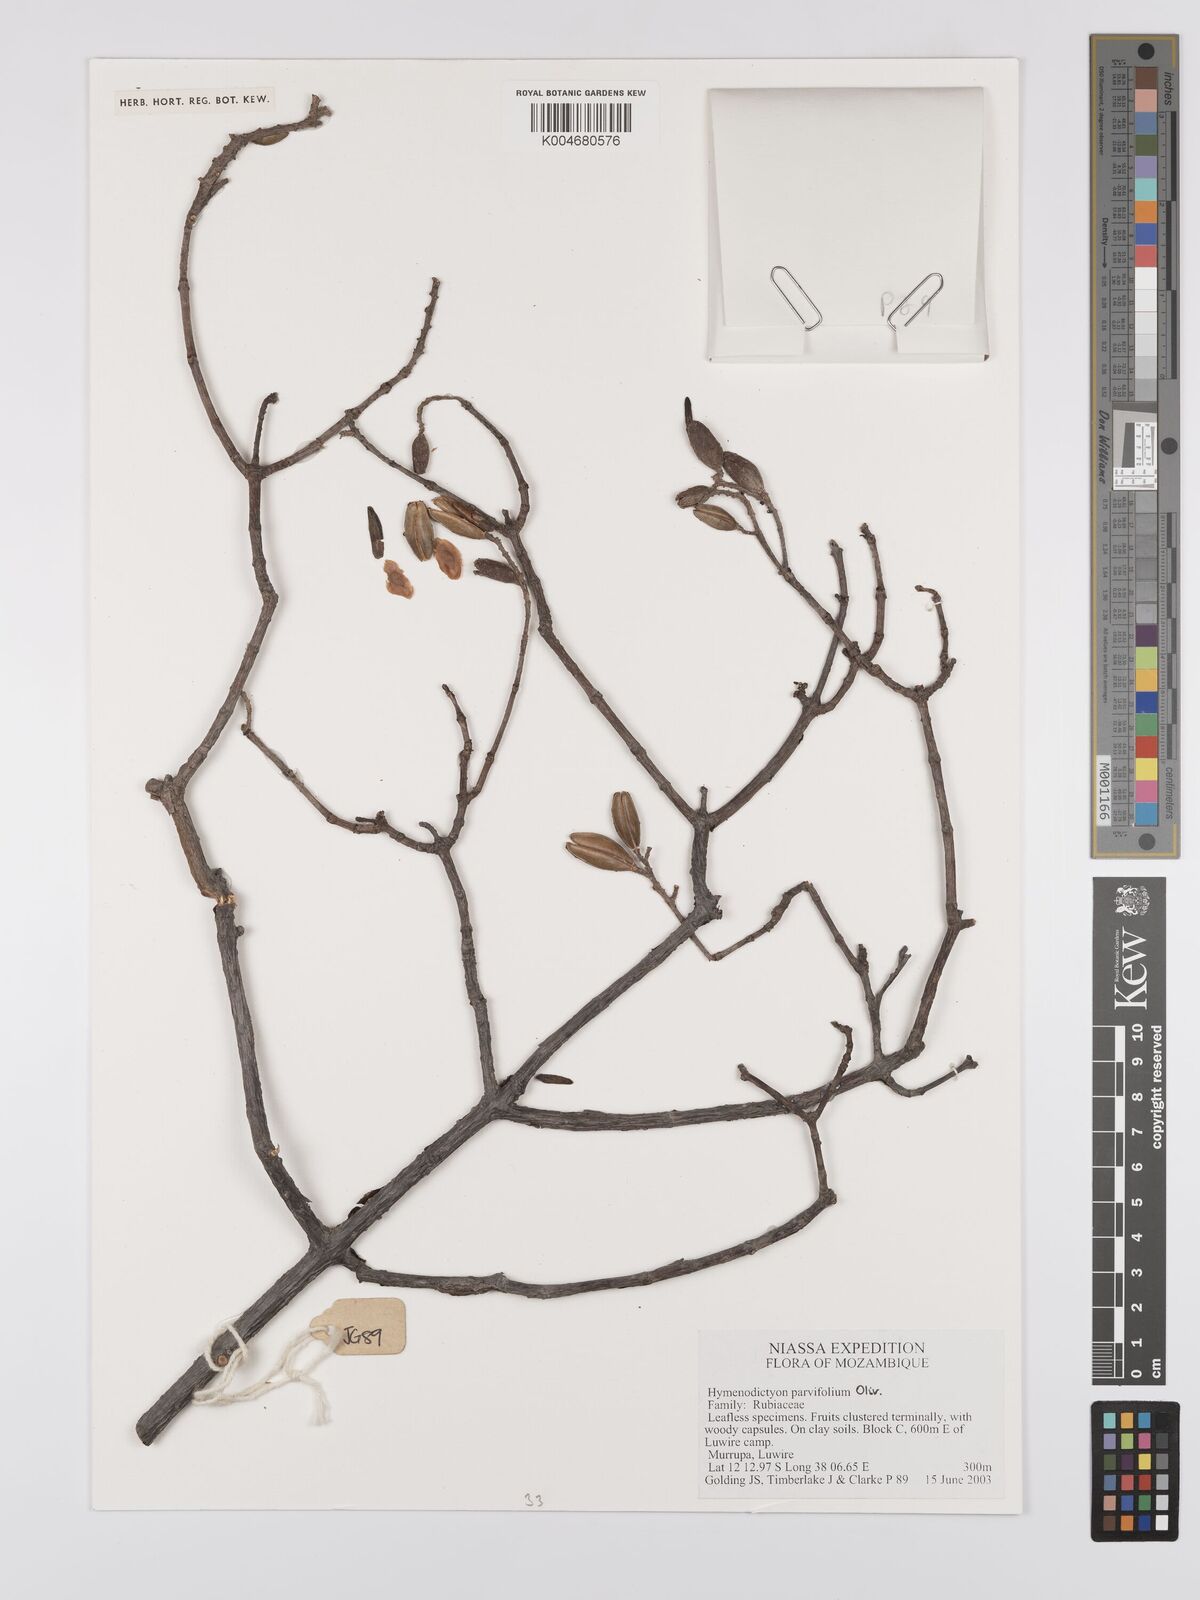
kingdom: Plantae
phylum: Tracheophyta
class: Magnoliopsida
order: Gentianales
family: Rubiaceae
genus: Hymenodictyon
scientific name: Hymenodictyon parvifolium
